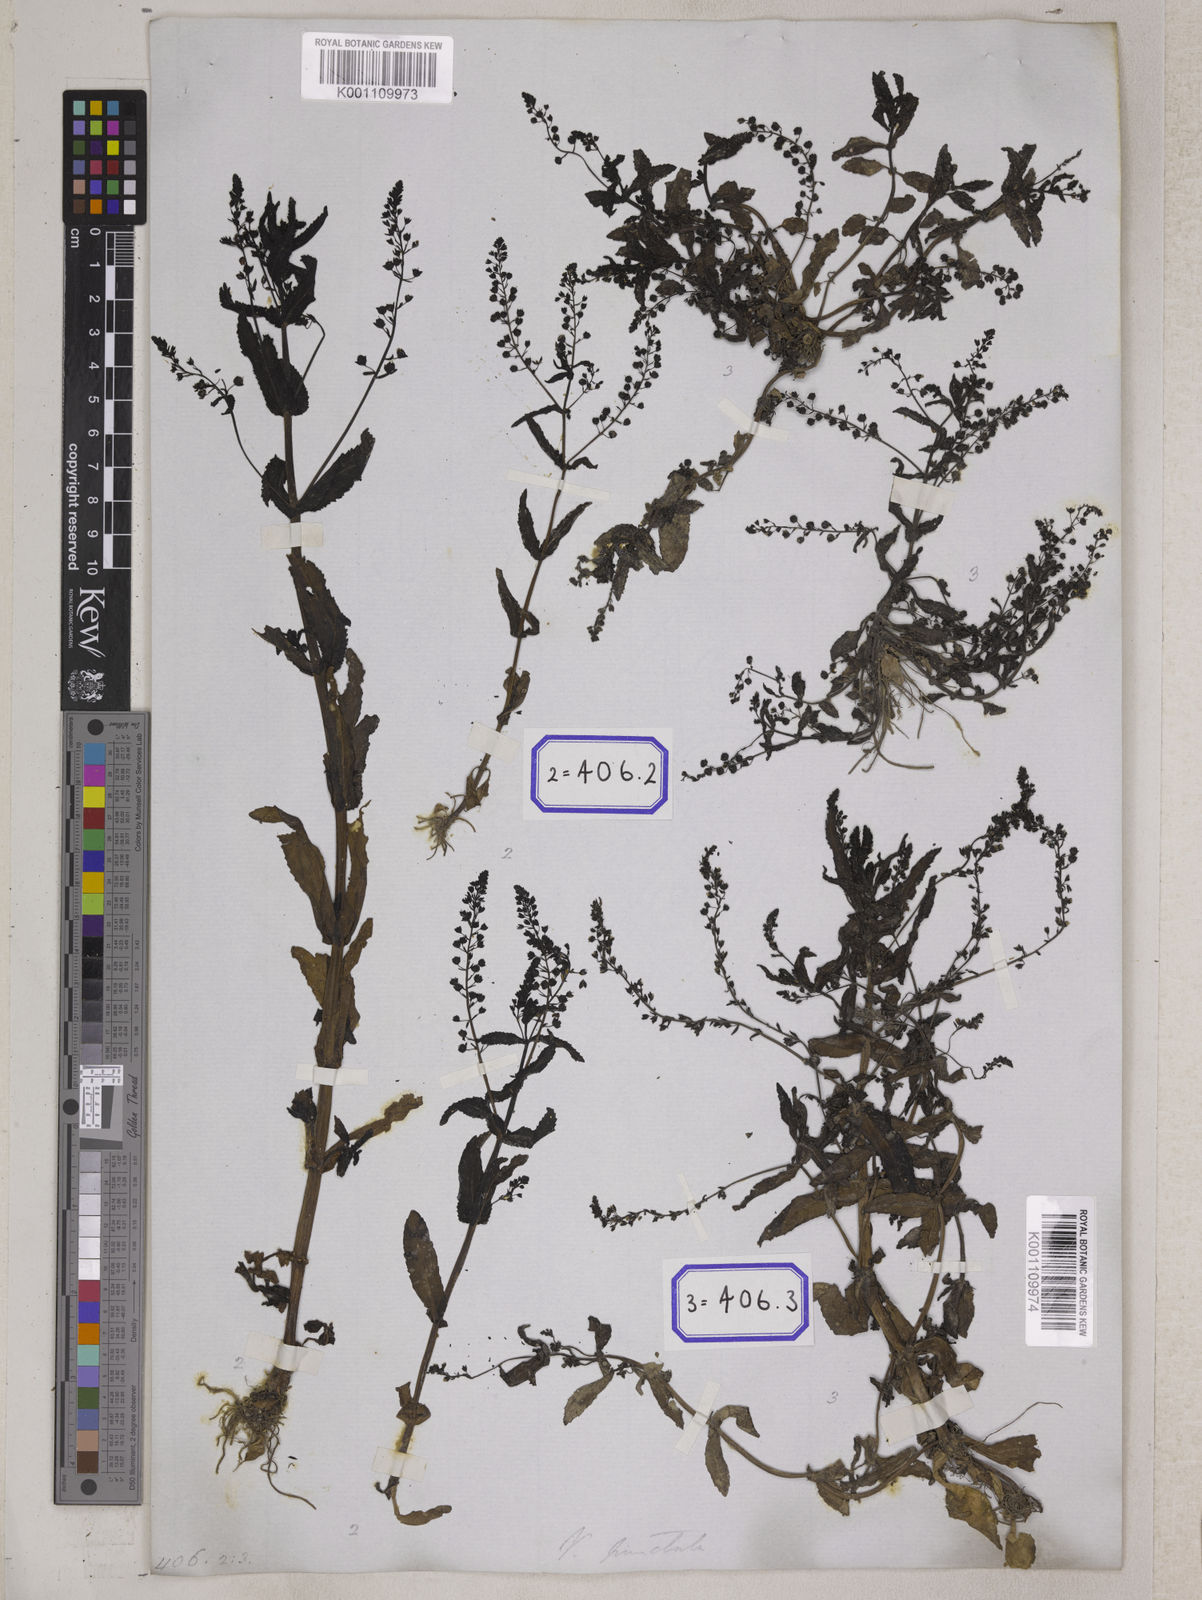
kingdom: Plantae
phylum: Tracheophyta
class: Magnoliopsida
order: Lamiales
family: Plantaginaceae
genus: Veronica
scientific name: Veronica undulata
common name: Undulate speedwell
